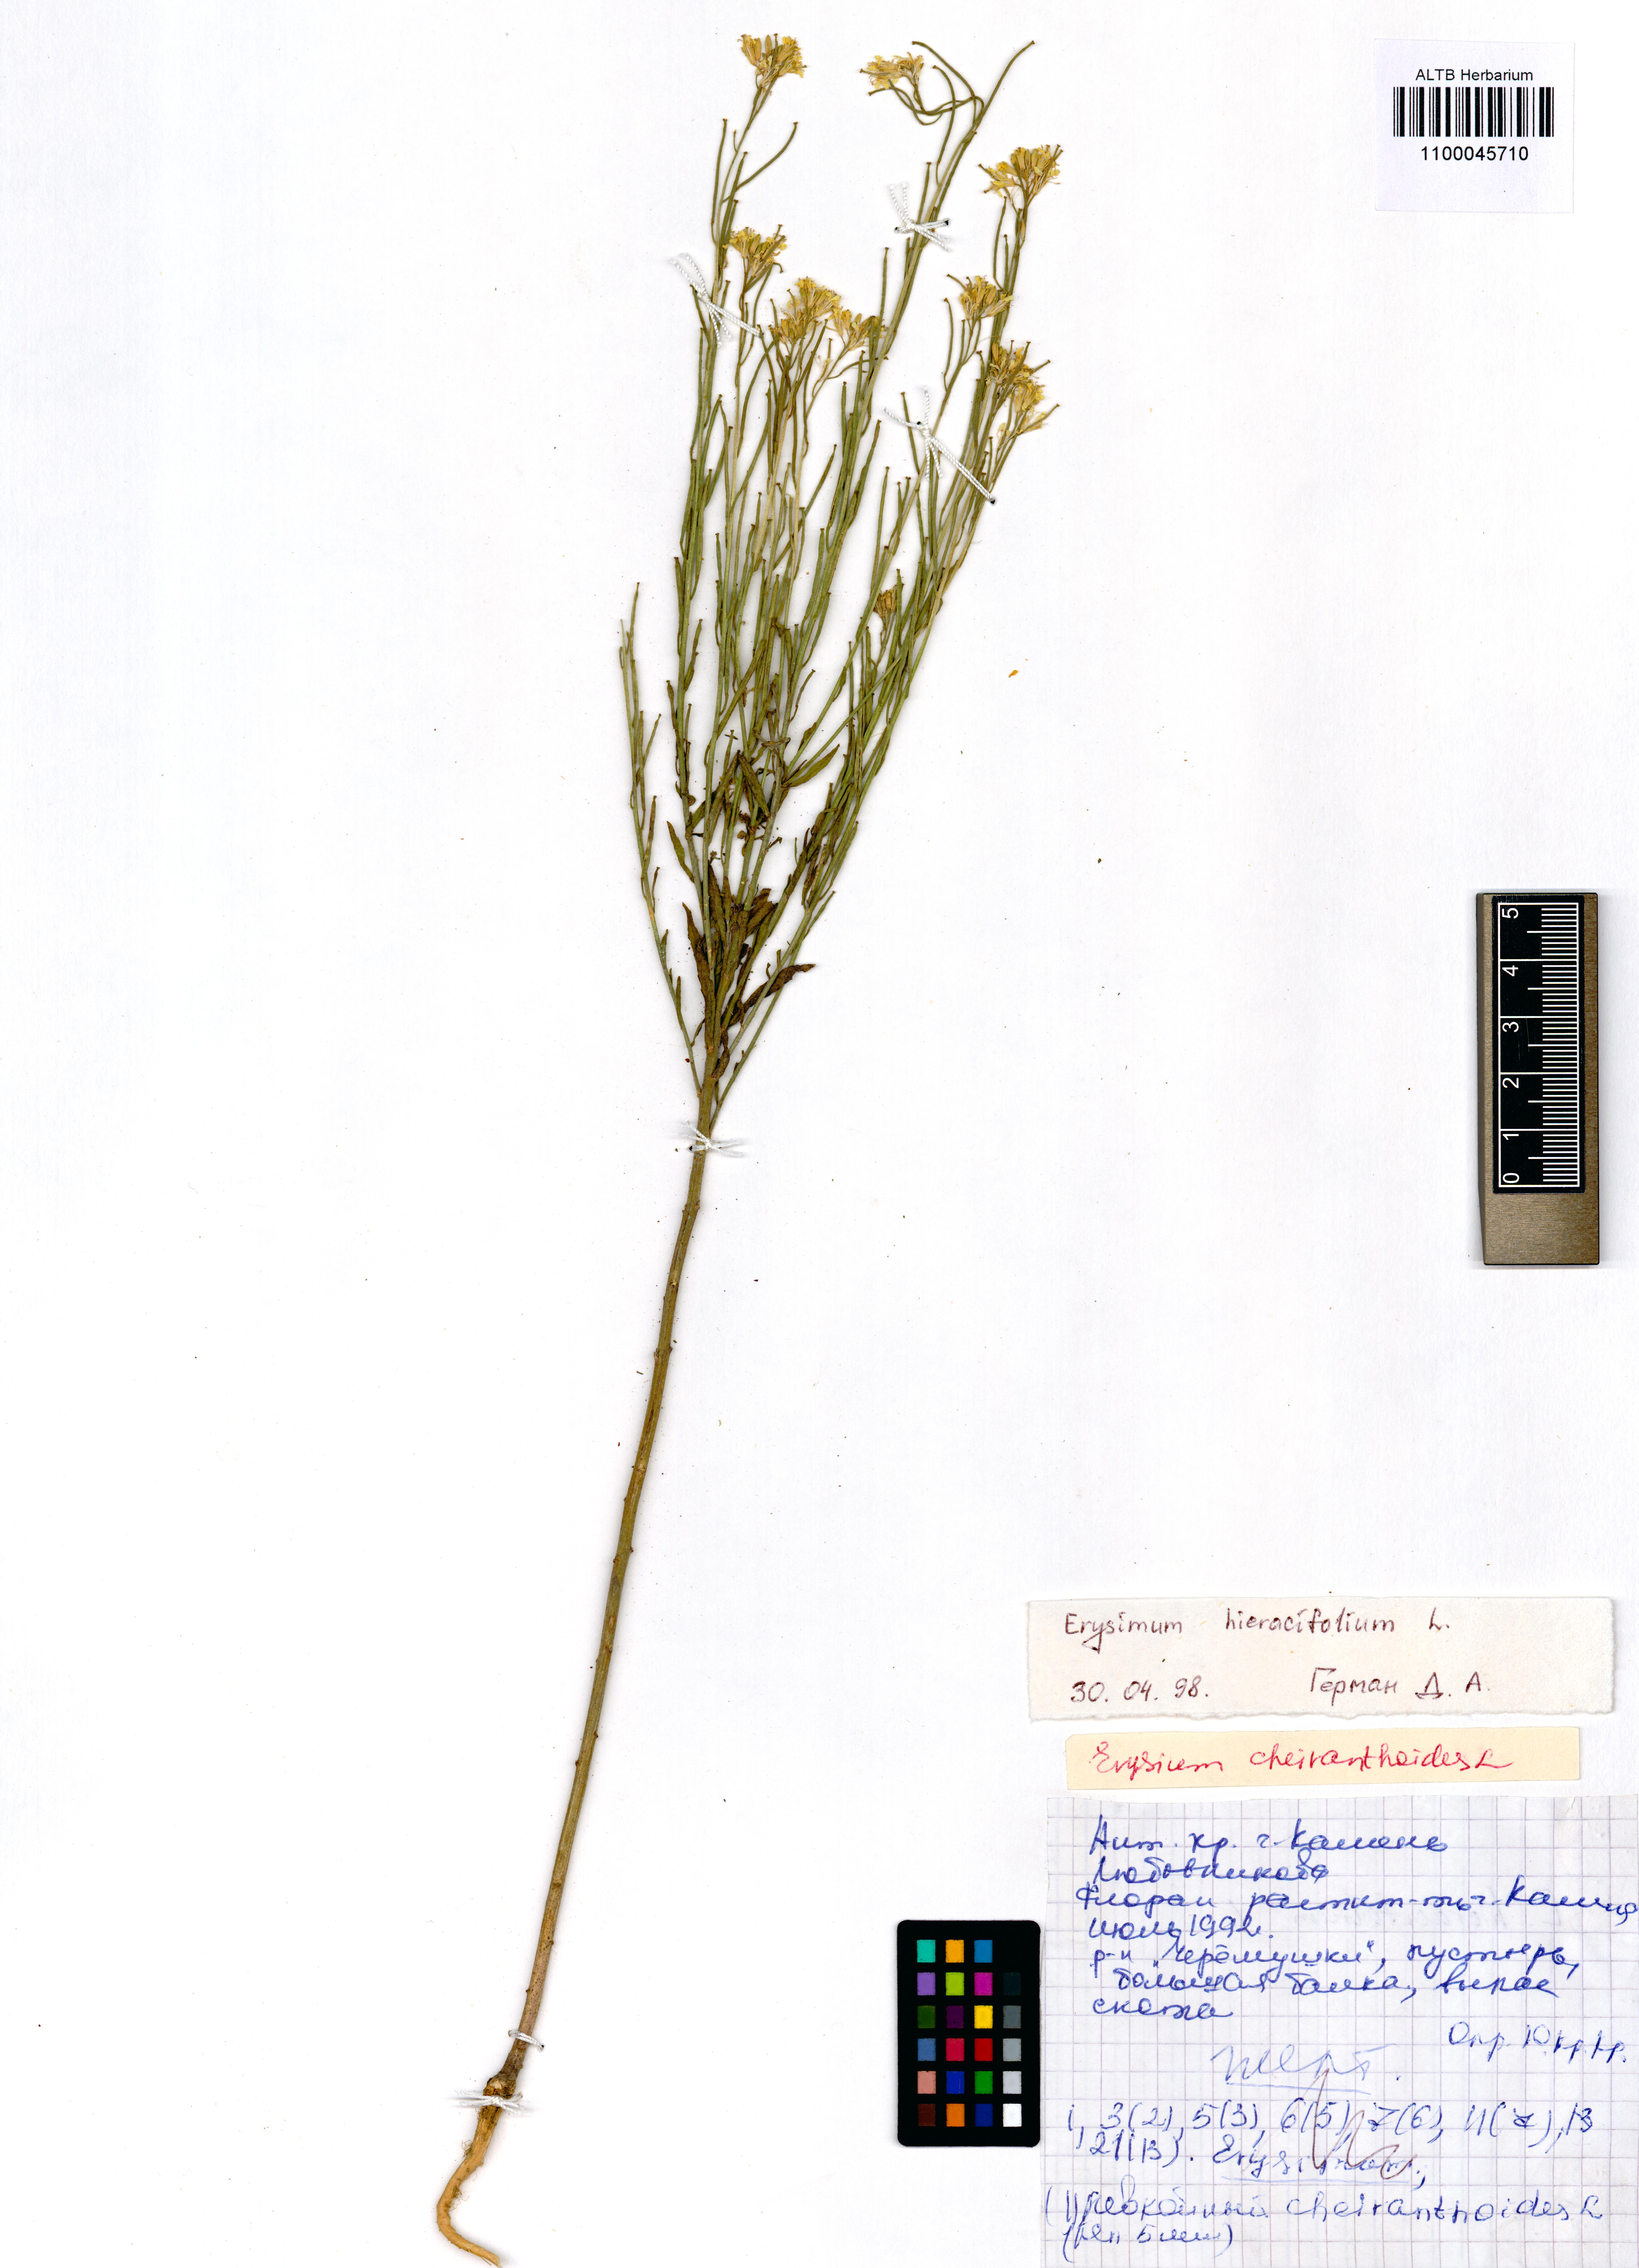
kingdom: Plantae
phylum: Tracheophyta
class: Magnoliopsida
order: Brassicales
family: Brassicaceae
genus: Erysimum
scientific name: Erysimum hieraciifolium
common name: European wallflower
